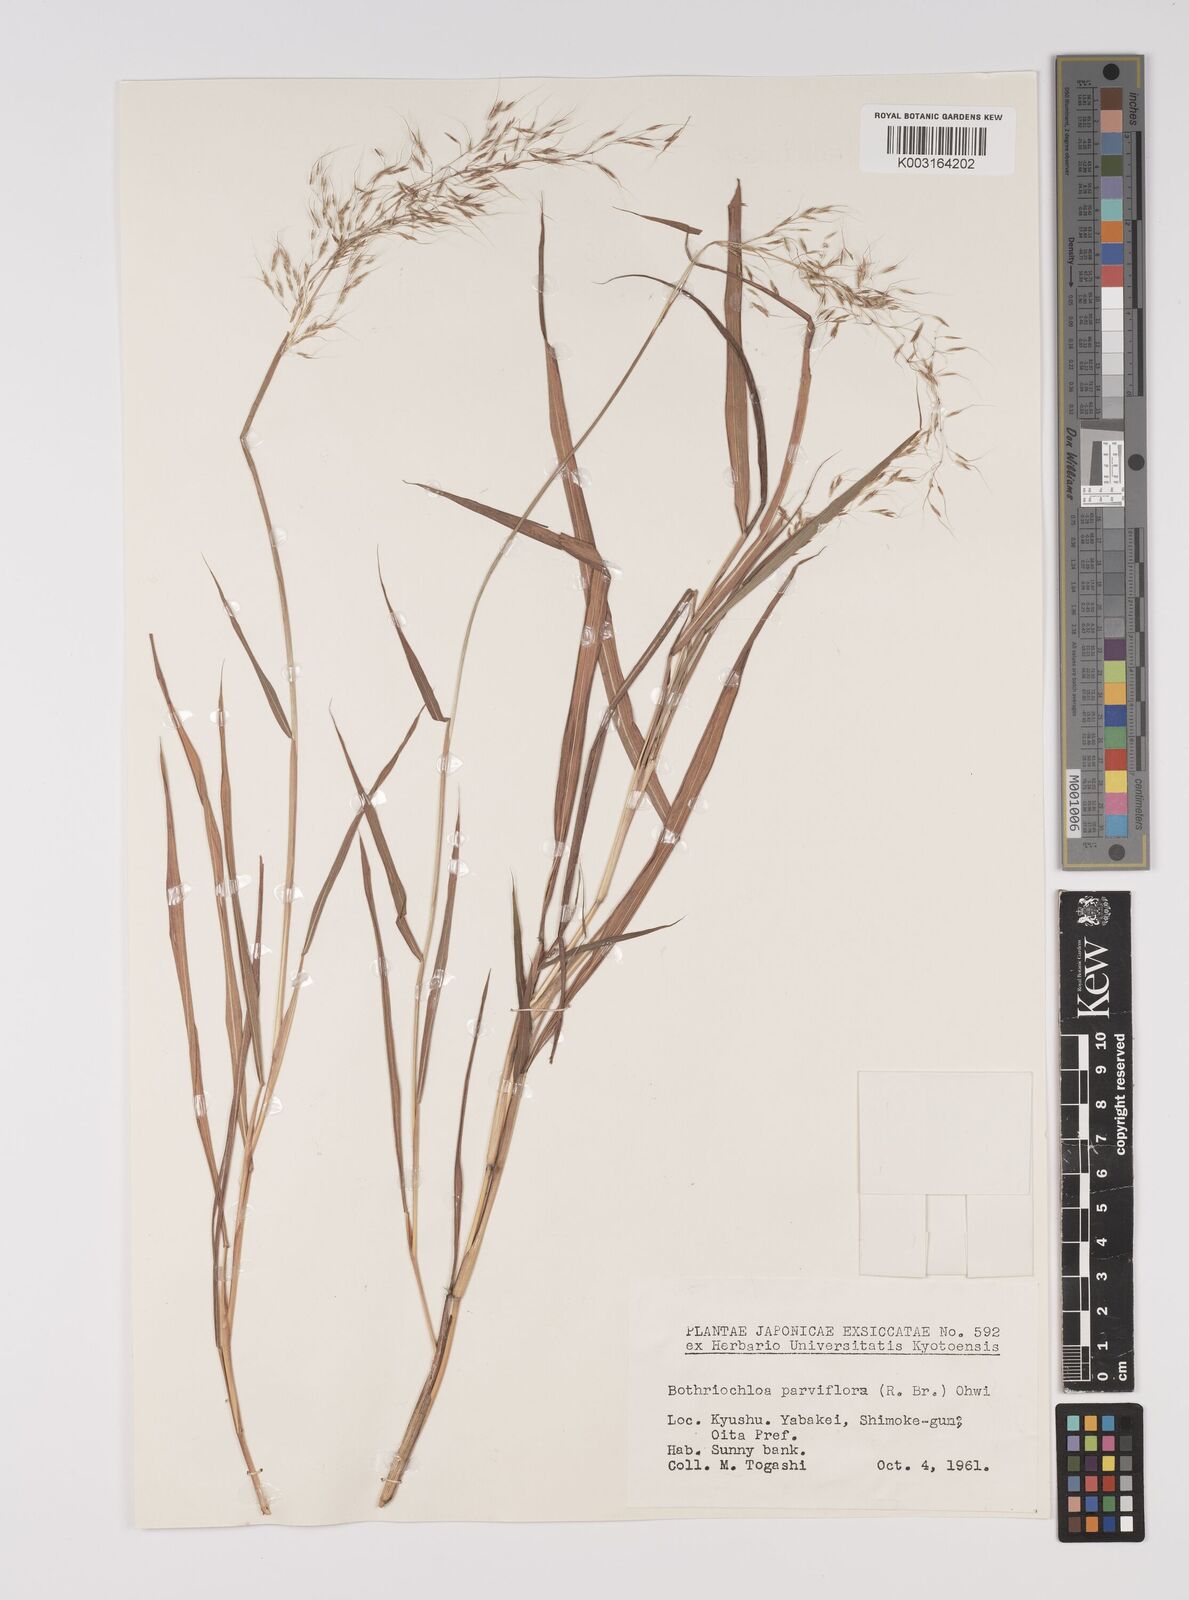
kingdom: Plantae
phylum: Tracheophyta
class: Liliopsida
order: Poales
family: Poaceae
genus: Capillipedium
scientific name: Capillipedium parviflorum
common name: Golden-beard
